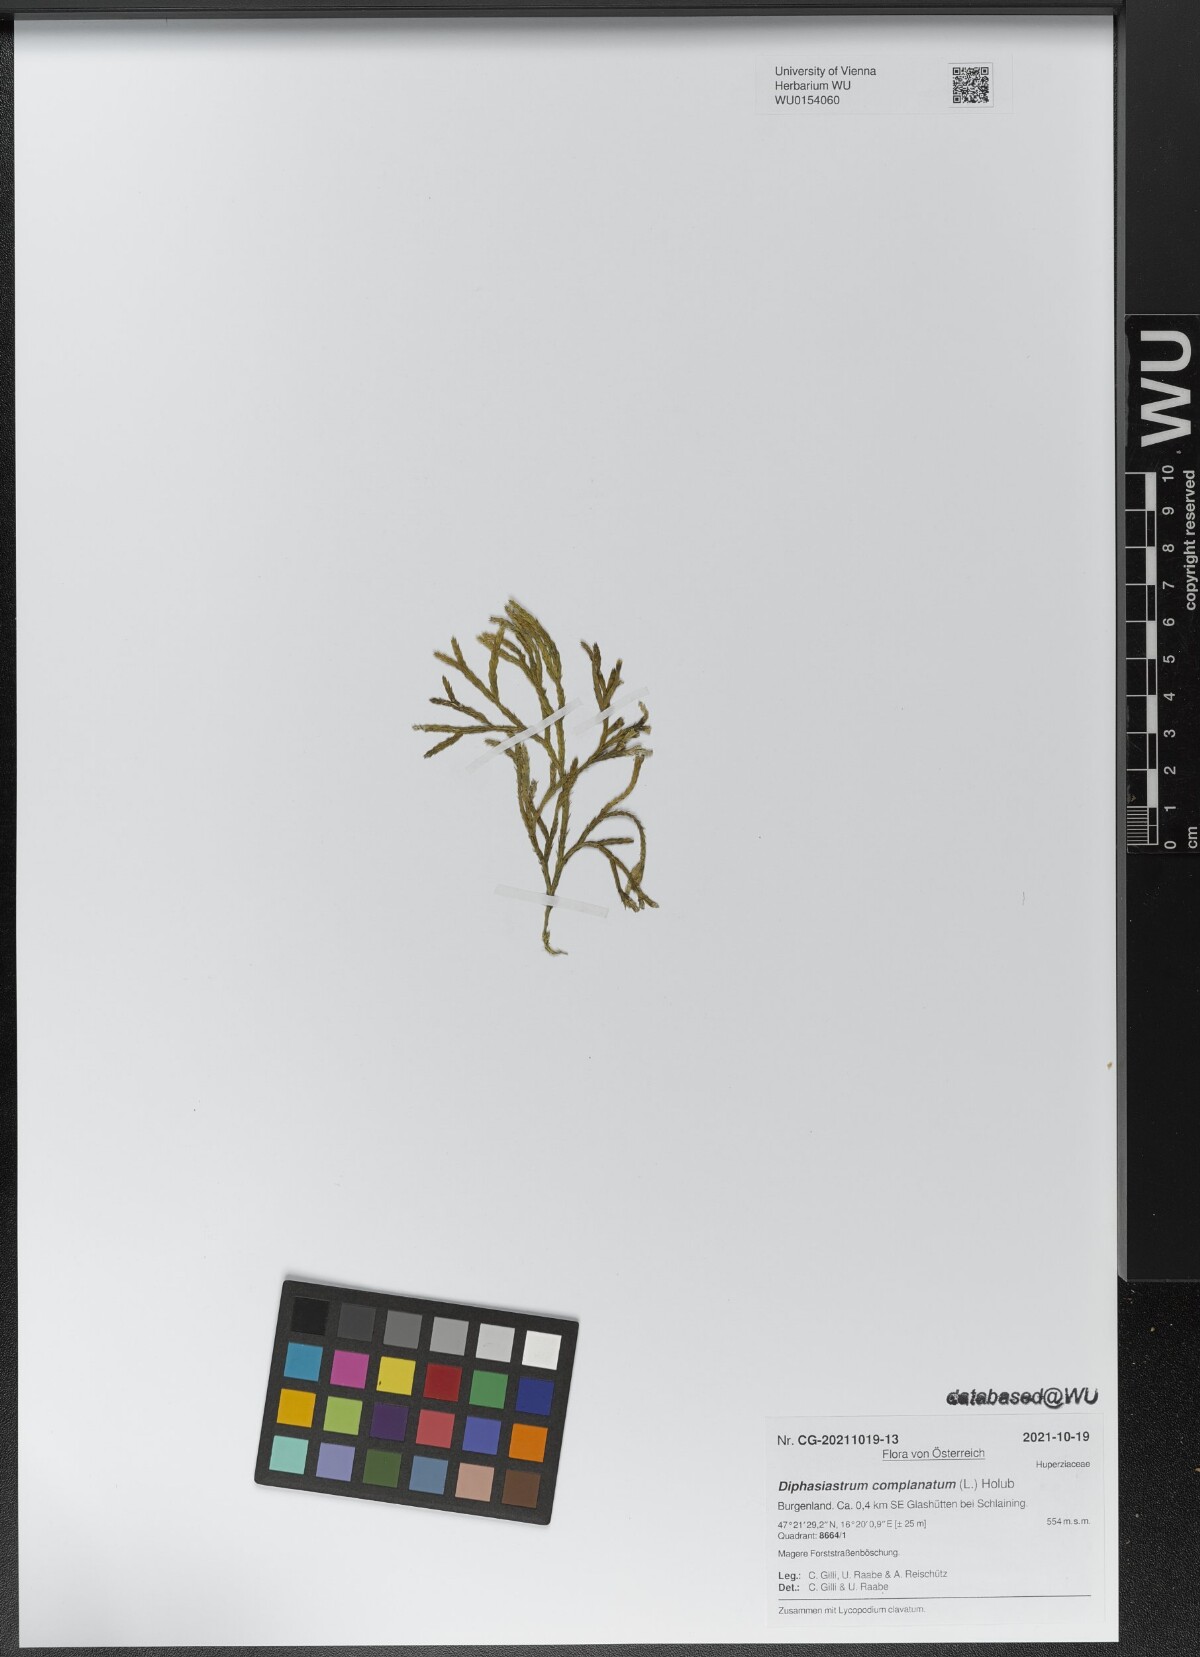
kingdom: Plantae
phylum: Tracheophyta
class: Lycopodiopsida
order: Lycopodiales
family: Lycopodiaceae
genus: Diphasiastrum
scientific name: Diphasiastrum complanatum
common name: Northern running-pine
